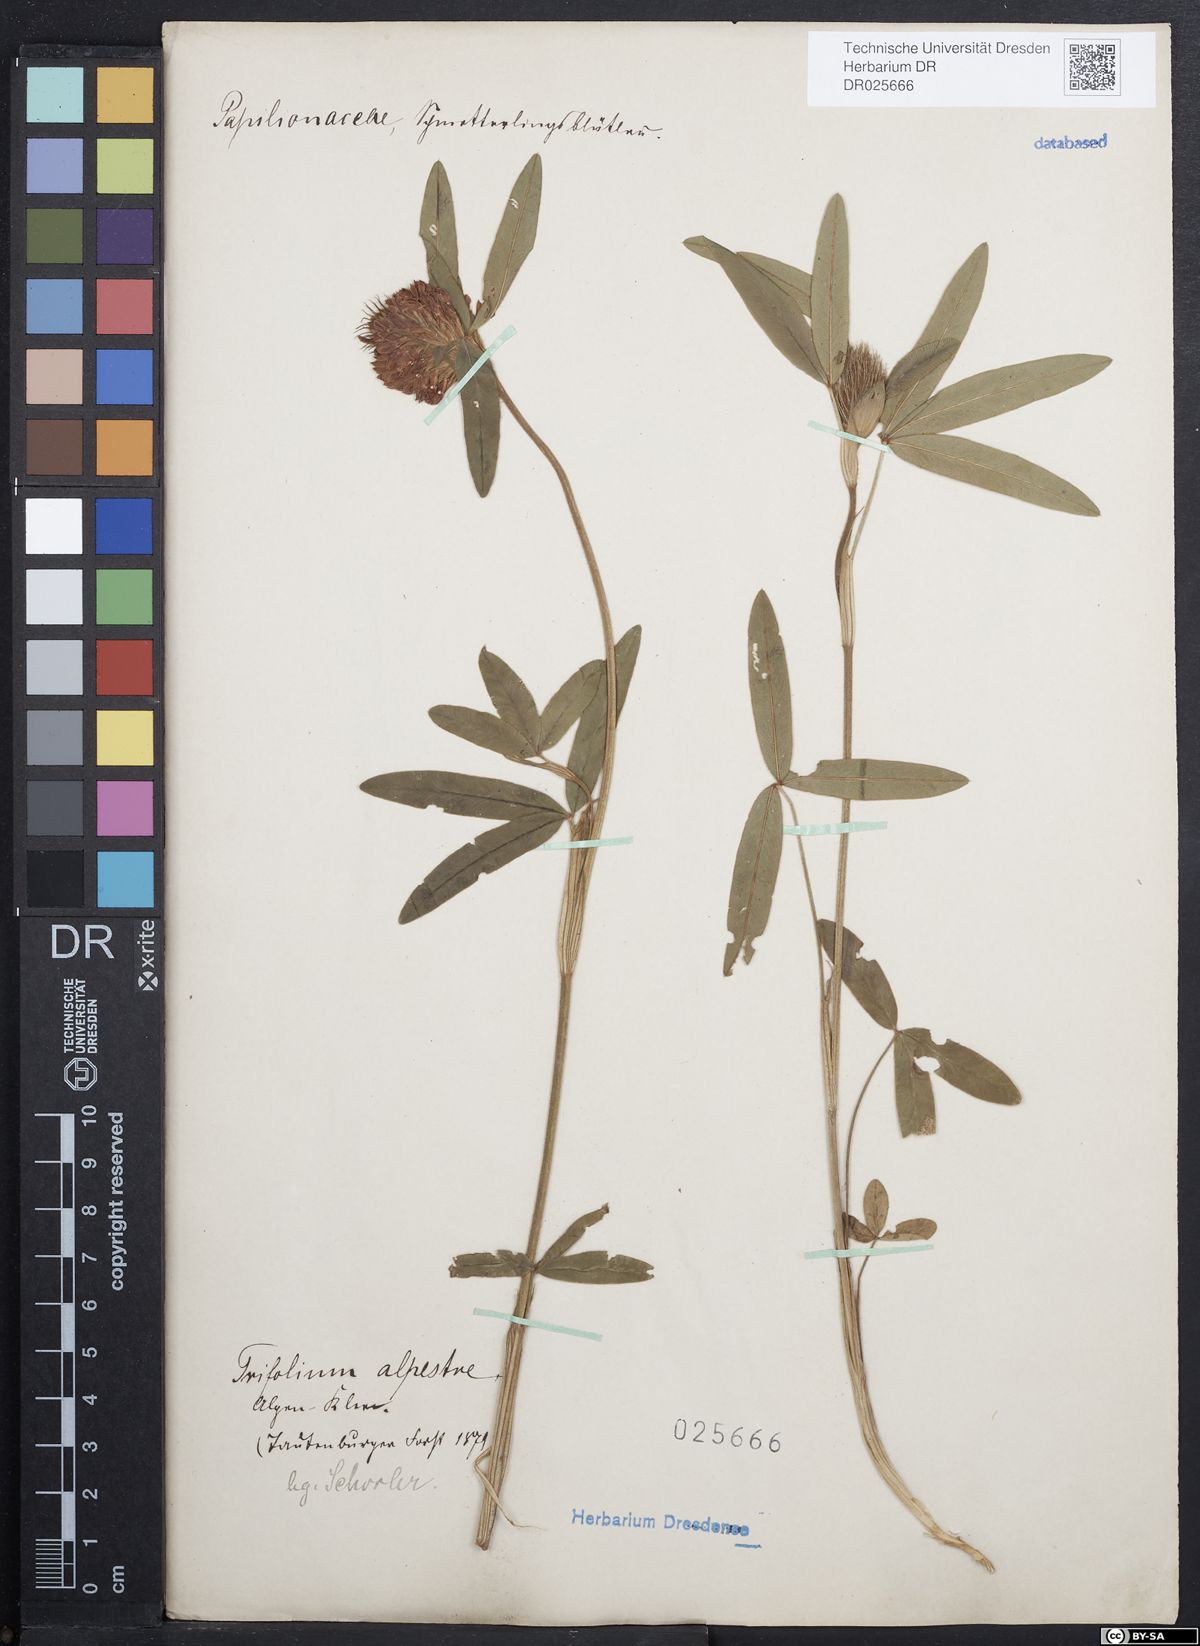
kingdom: Plantae
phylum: Tracheophyta
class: Magnoliopsida
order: Fabales
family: Fabaceae
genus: Trifolium
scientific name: Trifolium alpestre
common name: Owl-head clover
